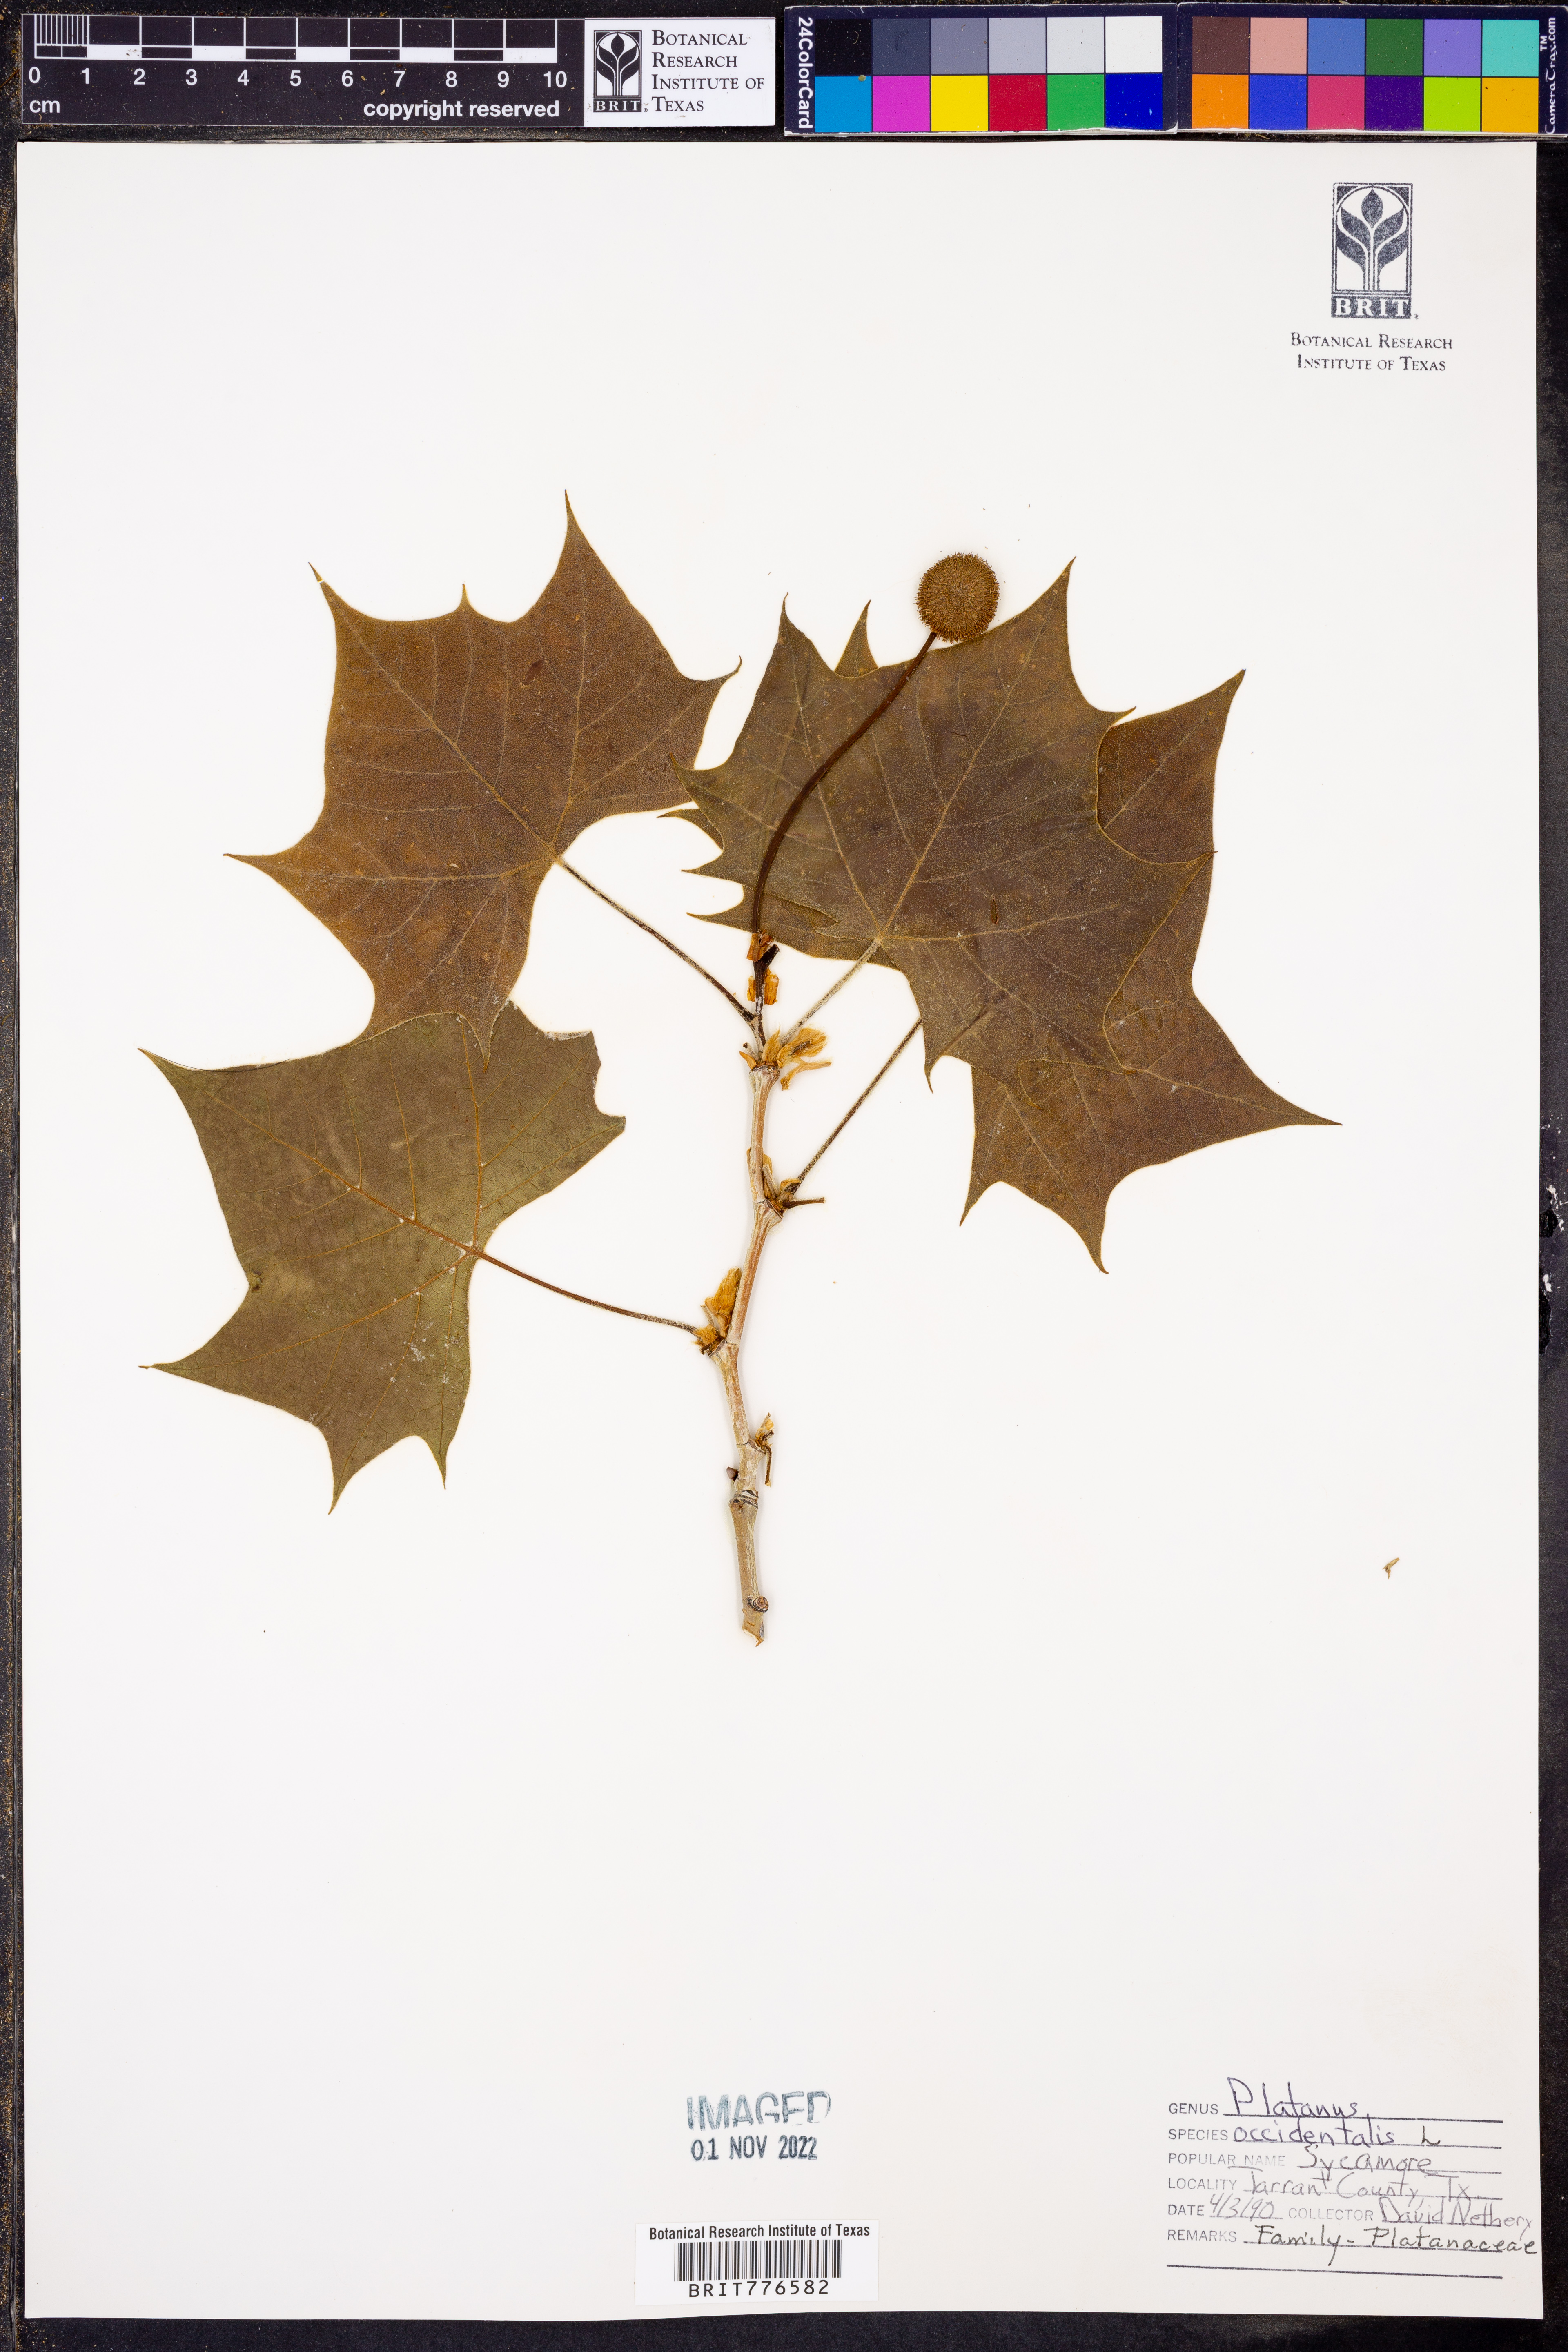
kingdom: Plantae
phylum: Tracheophyta
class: Magnoliopsida
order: Proteales
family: Platanaceae
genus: Platanus
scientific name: Platanus occidentalis
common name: American sycamore
